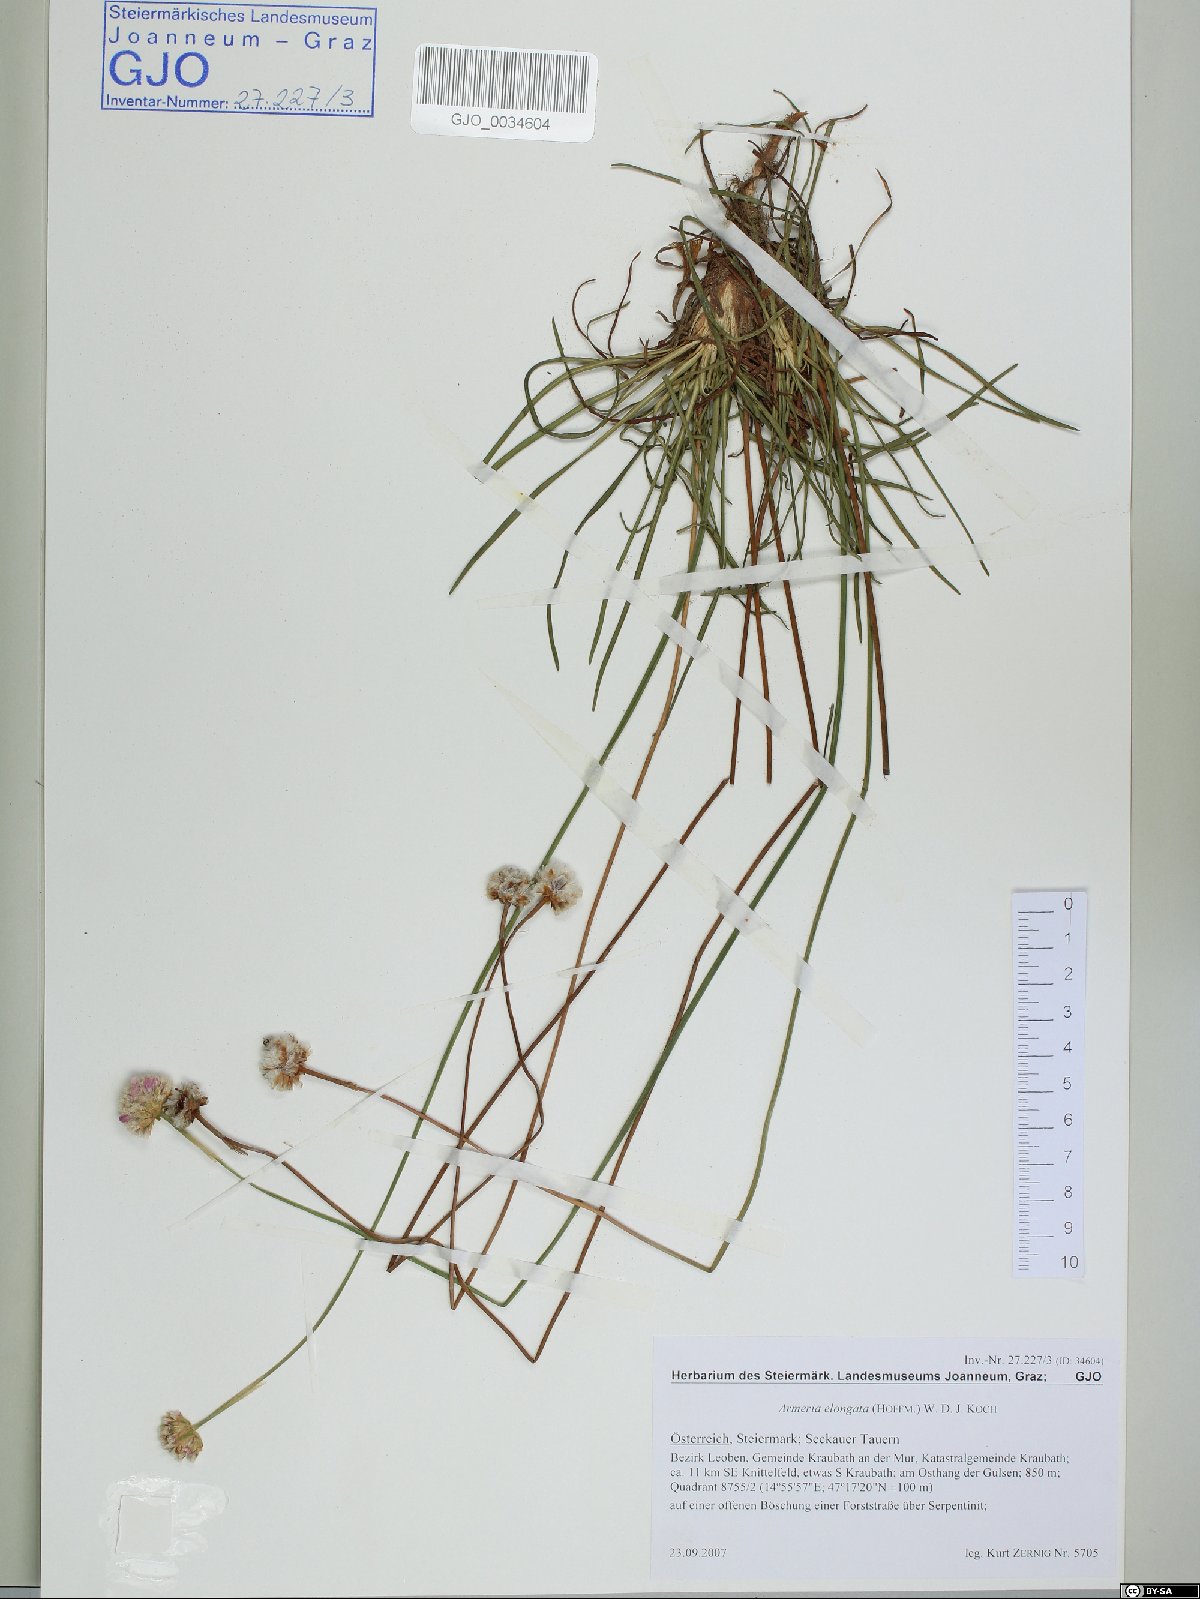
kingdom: Plantae
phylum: Tracheophyta
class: Magnoliopsida
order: Caryophyllales
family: Plumbaginaceae
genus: Armeria
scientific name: Armeria maritima
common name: Thrift
